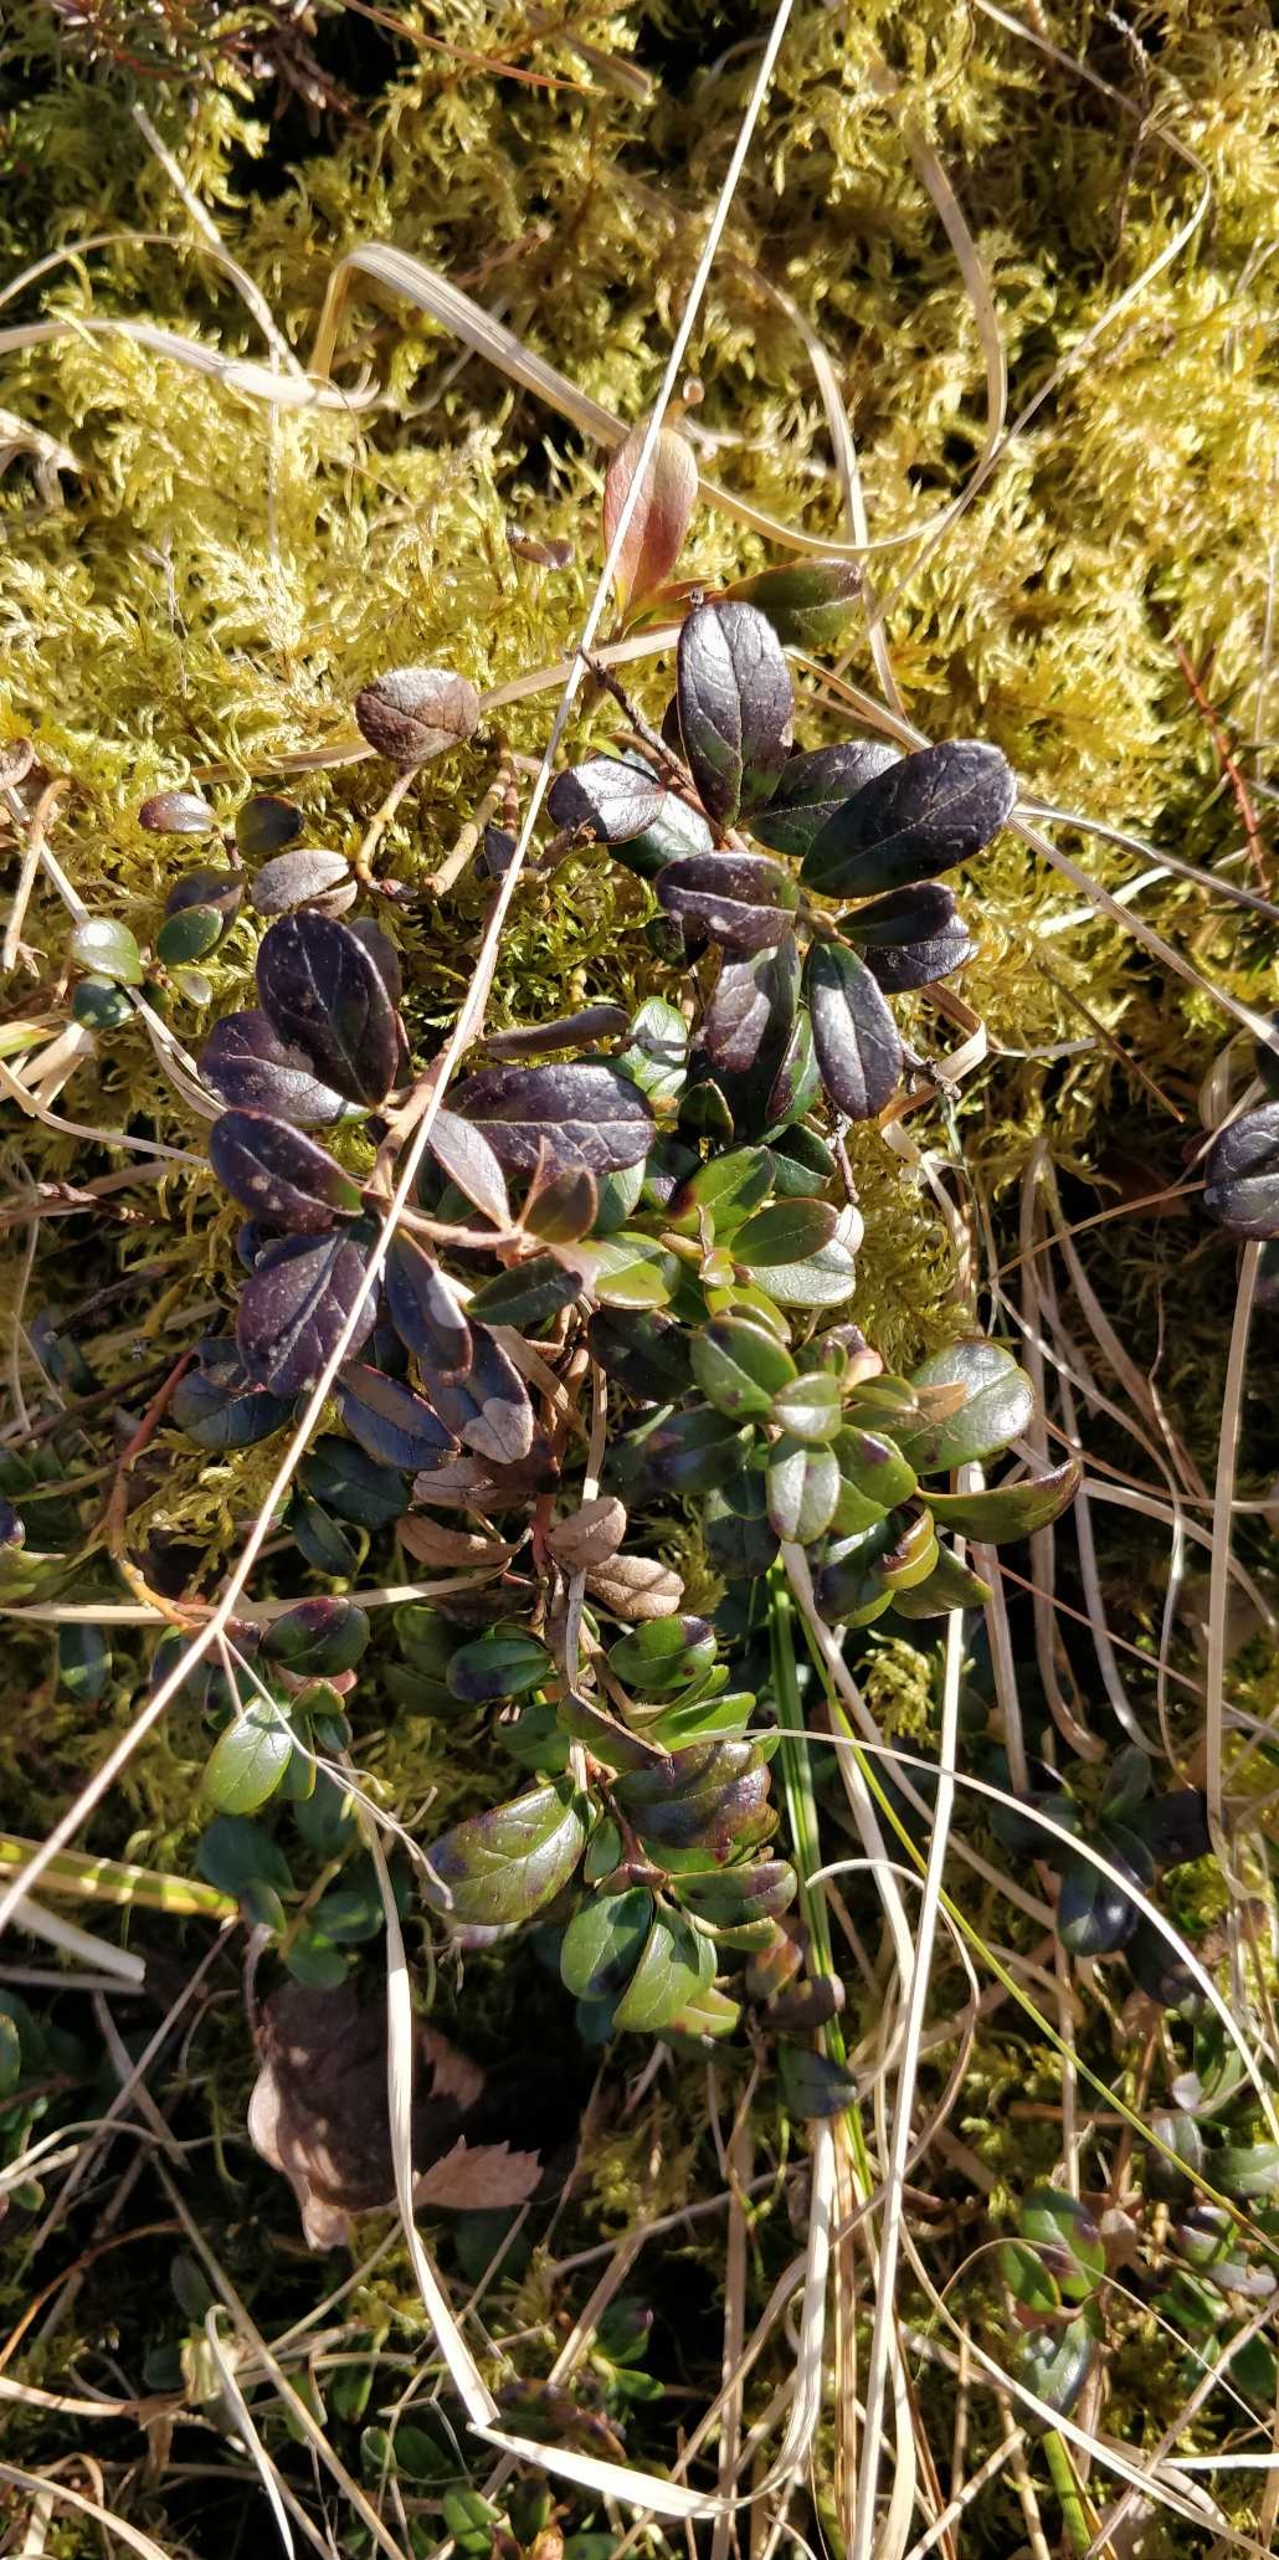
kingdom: Plantae
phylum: Tracheophyta
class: Magnoliopsida
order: Ericales
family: Ericaceae
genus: Vaccinium
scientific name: Vaccinium vitis-idaea
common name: Tyttebær
